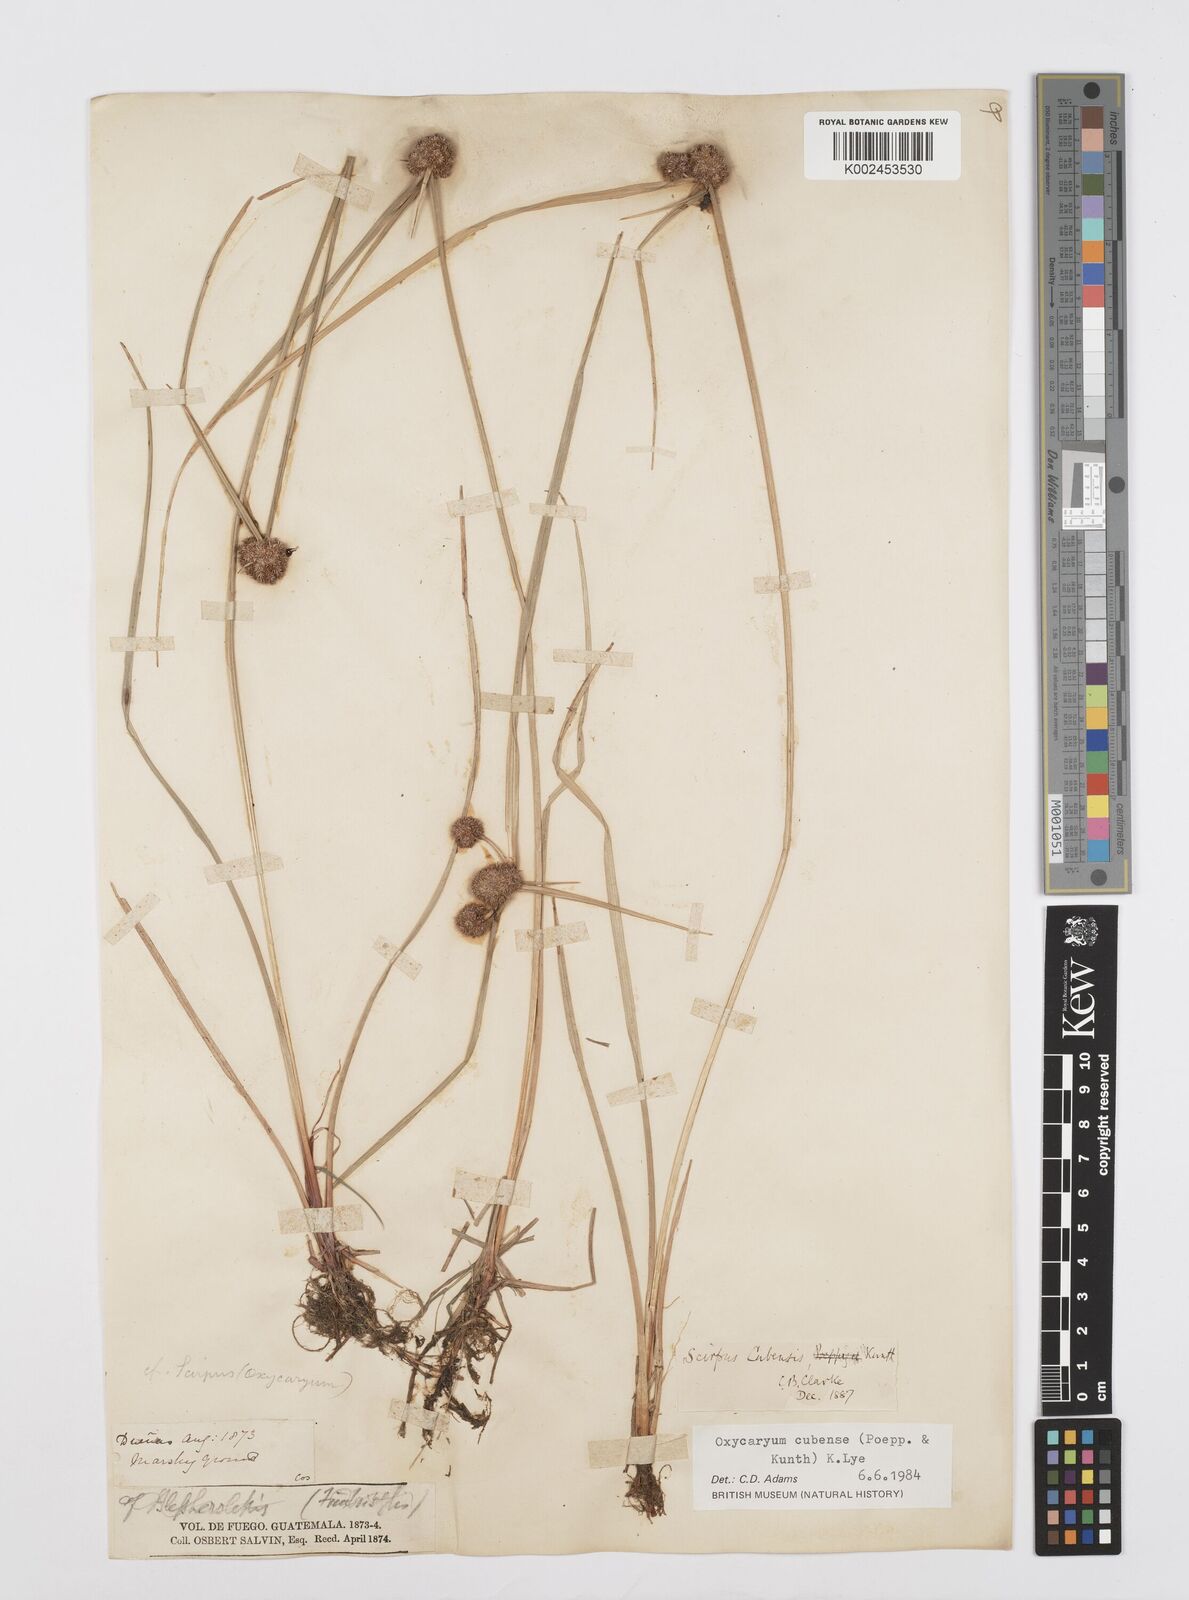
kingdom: Plantae
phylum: Tracheophyta
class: Liliopsida
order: Poales
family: Cyperaceae
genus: Cyperus
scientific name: Cyperus elegans
